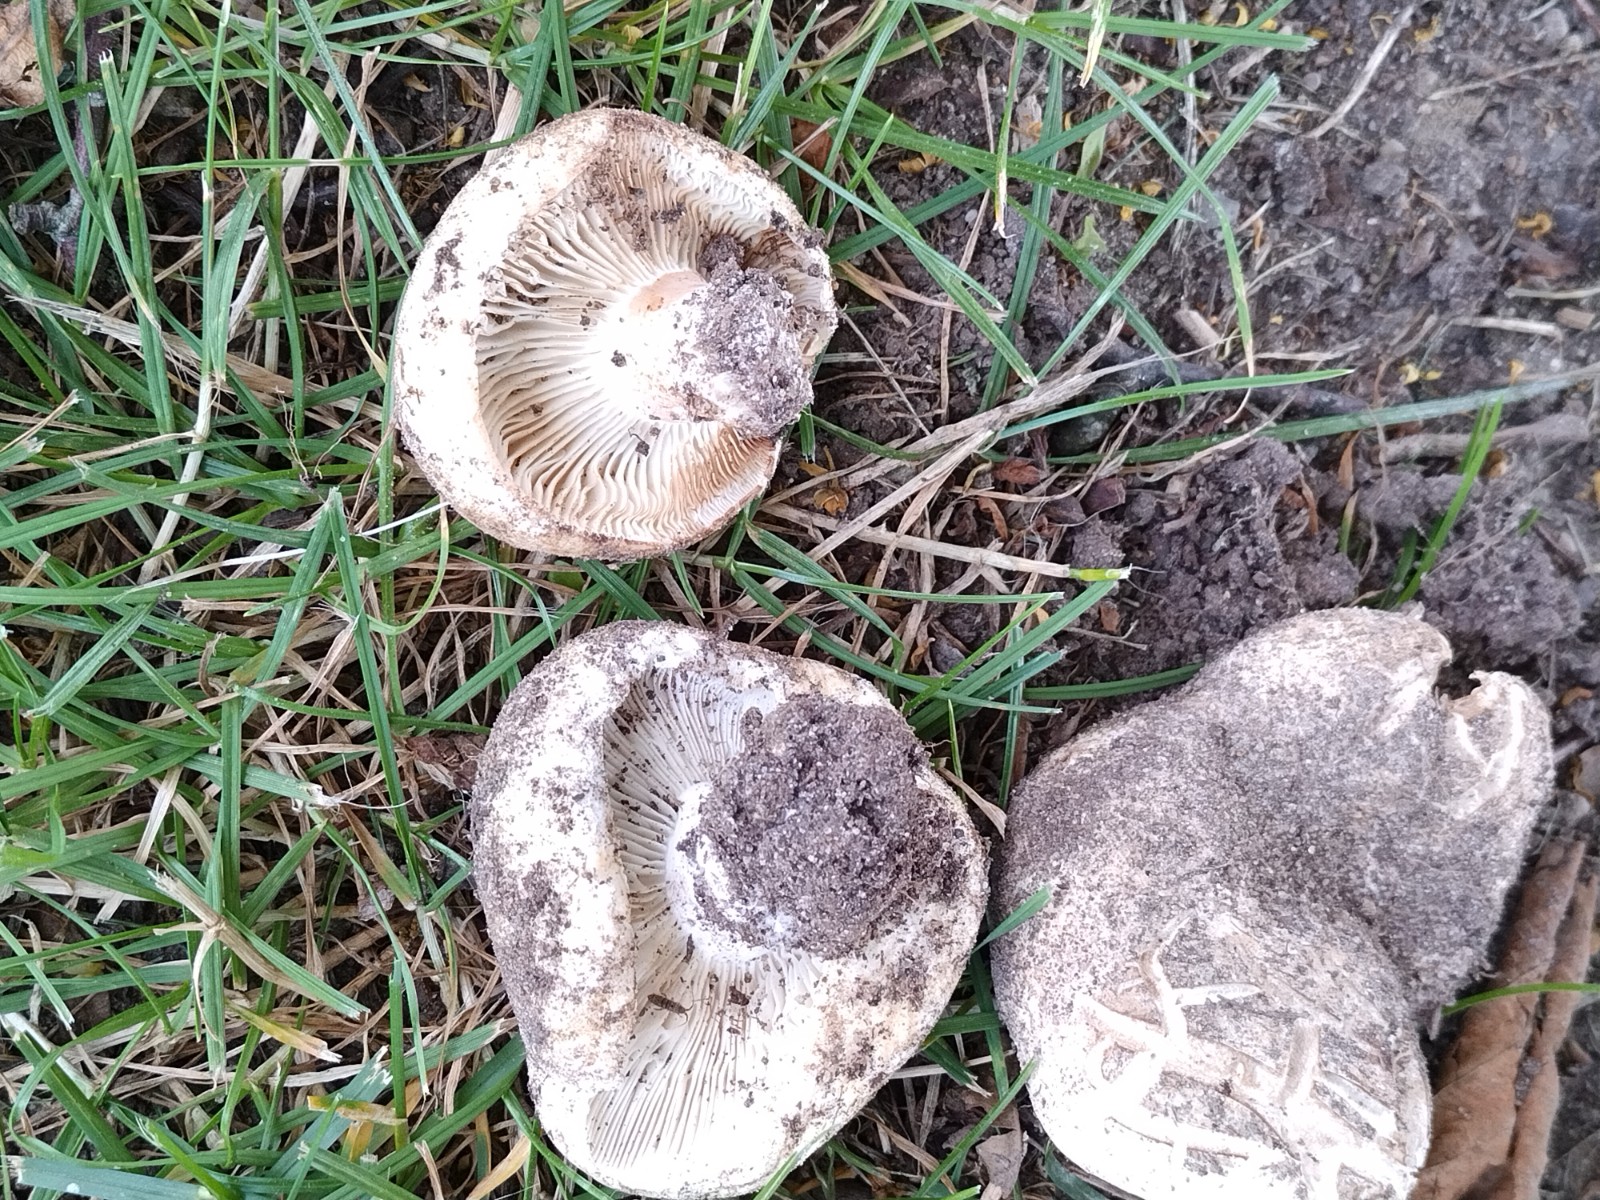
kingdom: Fungi
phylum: Basidiomycota
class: Agaricomycetes
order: Russulales
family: Russulaceae
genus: Russula
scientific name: Russula chloroides
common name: grønhalset tragt-skørhat
